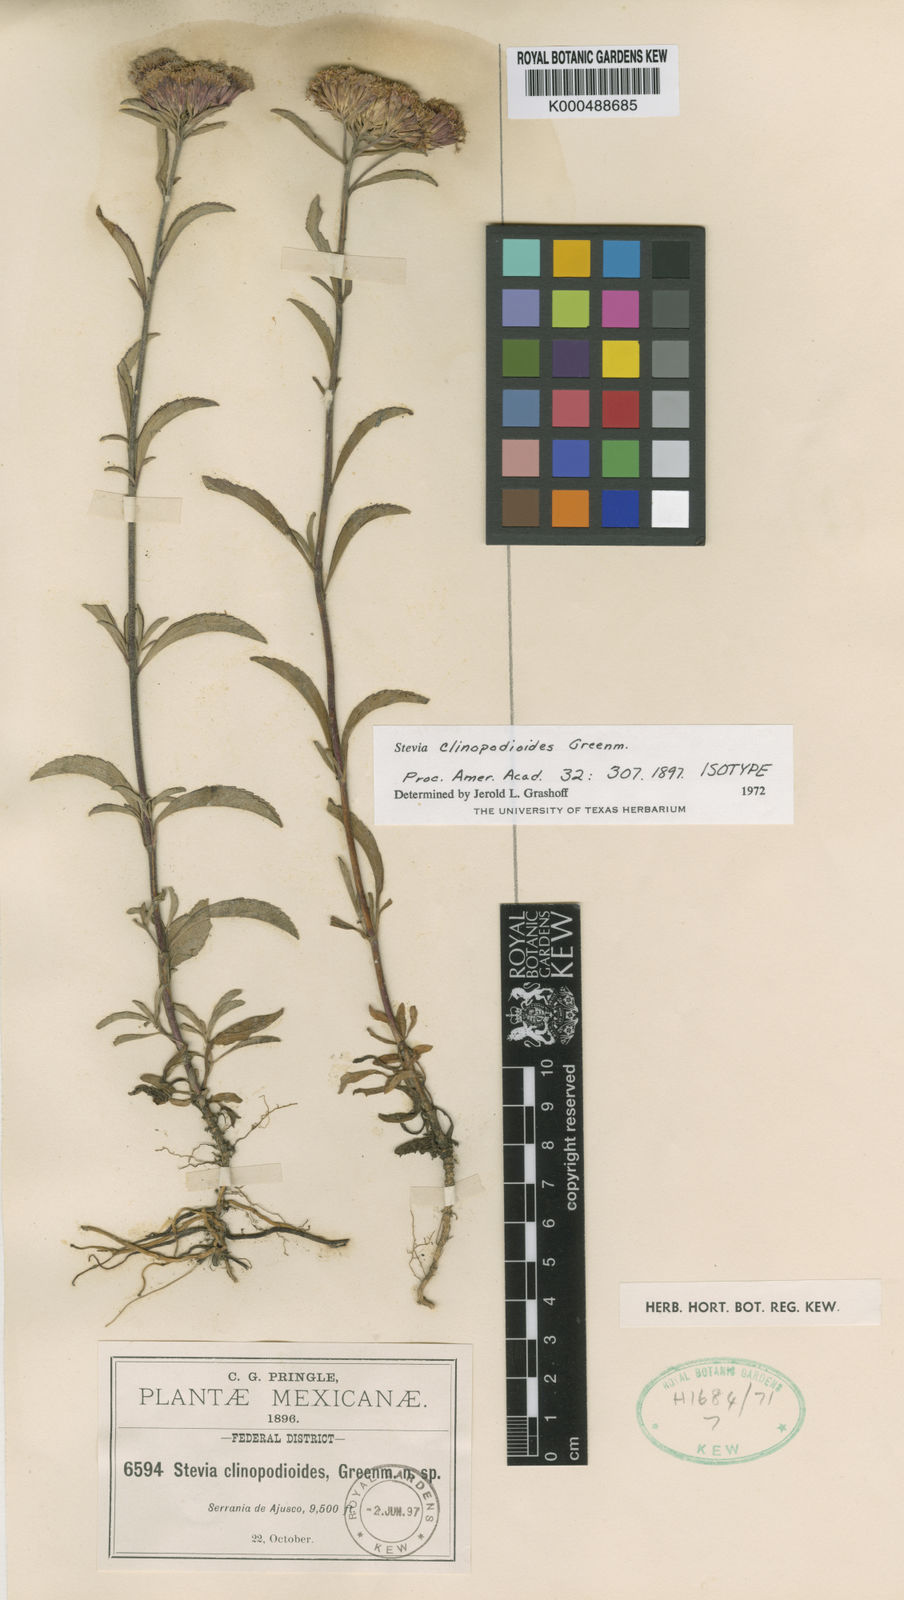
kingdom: Plantae
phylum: Tracheophyta
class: Magnoliopsida
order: Asterales
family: Asteraceae
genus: Stevia
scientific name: Stevia clinopodioides
